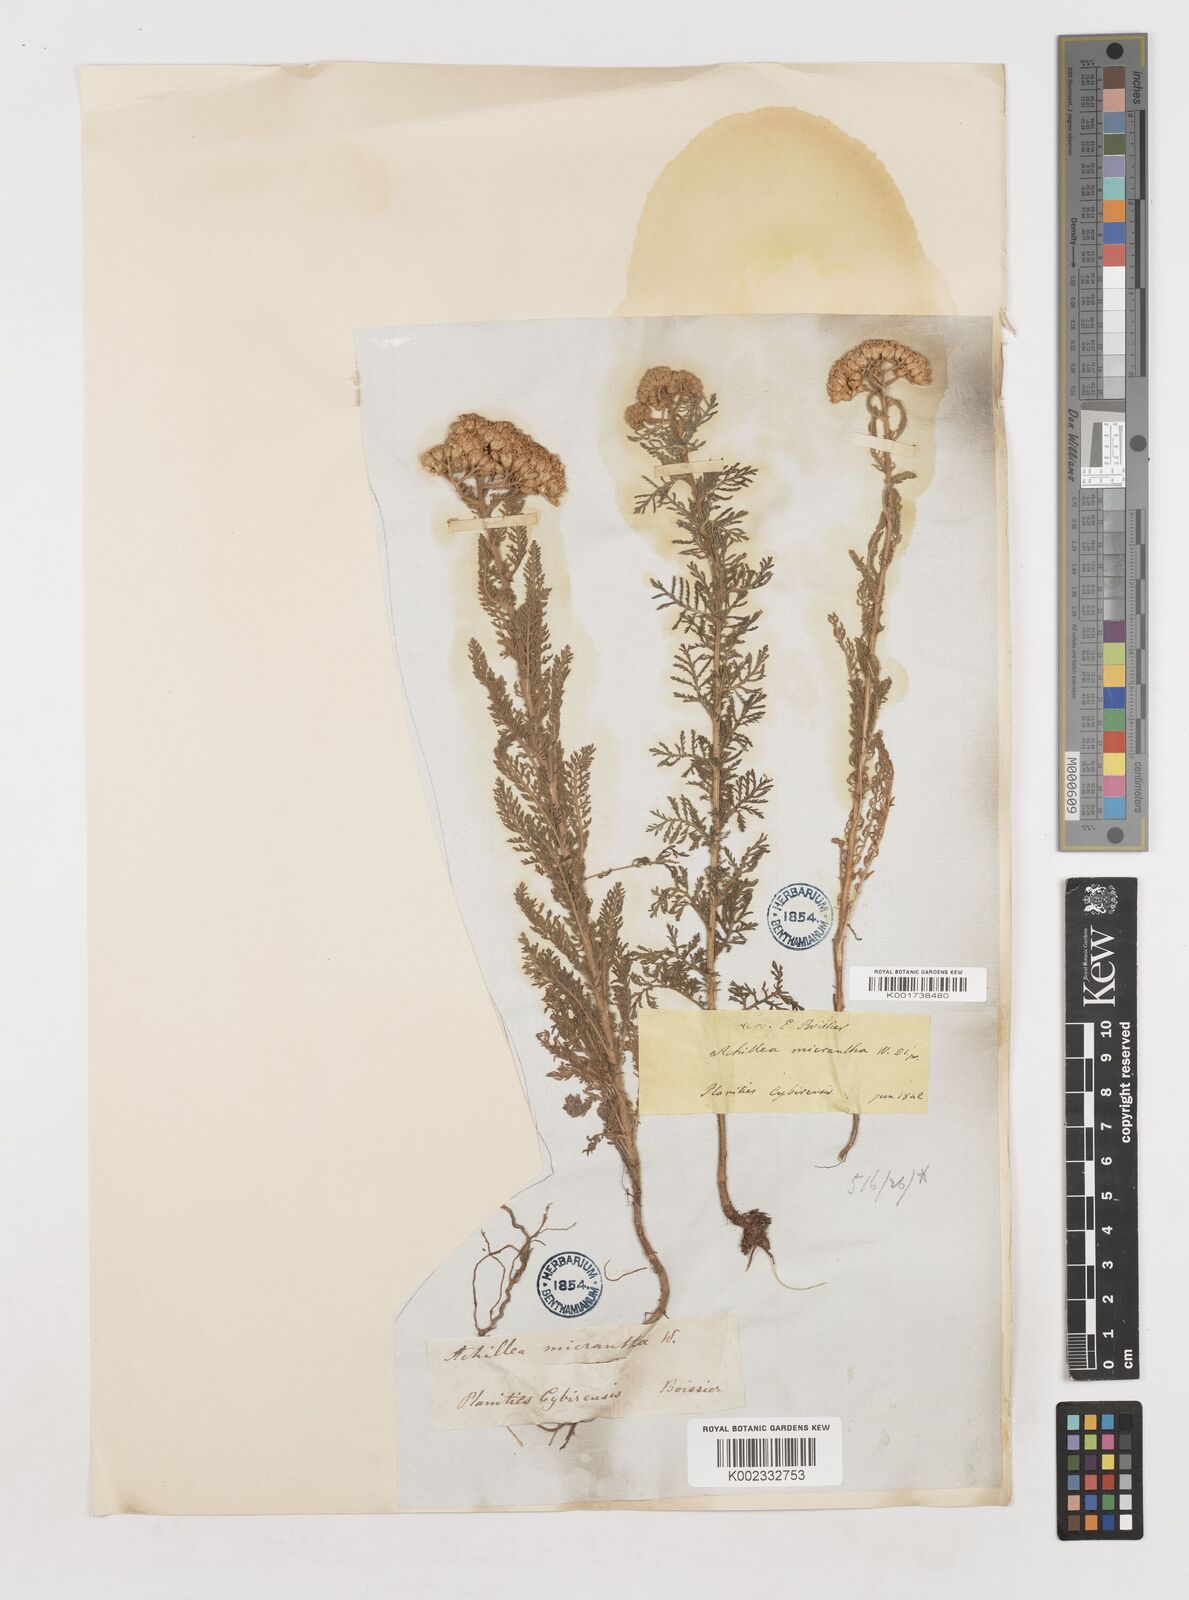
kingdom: Plantae
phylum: Tracheophyta
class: Magnoliopsida
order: Asterales
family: Asteraceae
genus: Achillea
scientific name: Achillea micrantha
